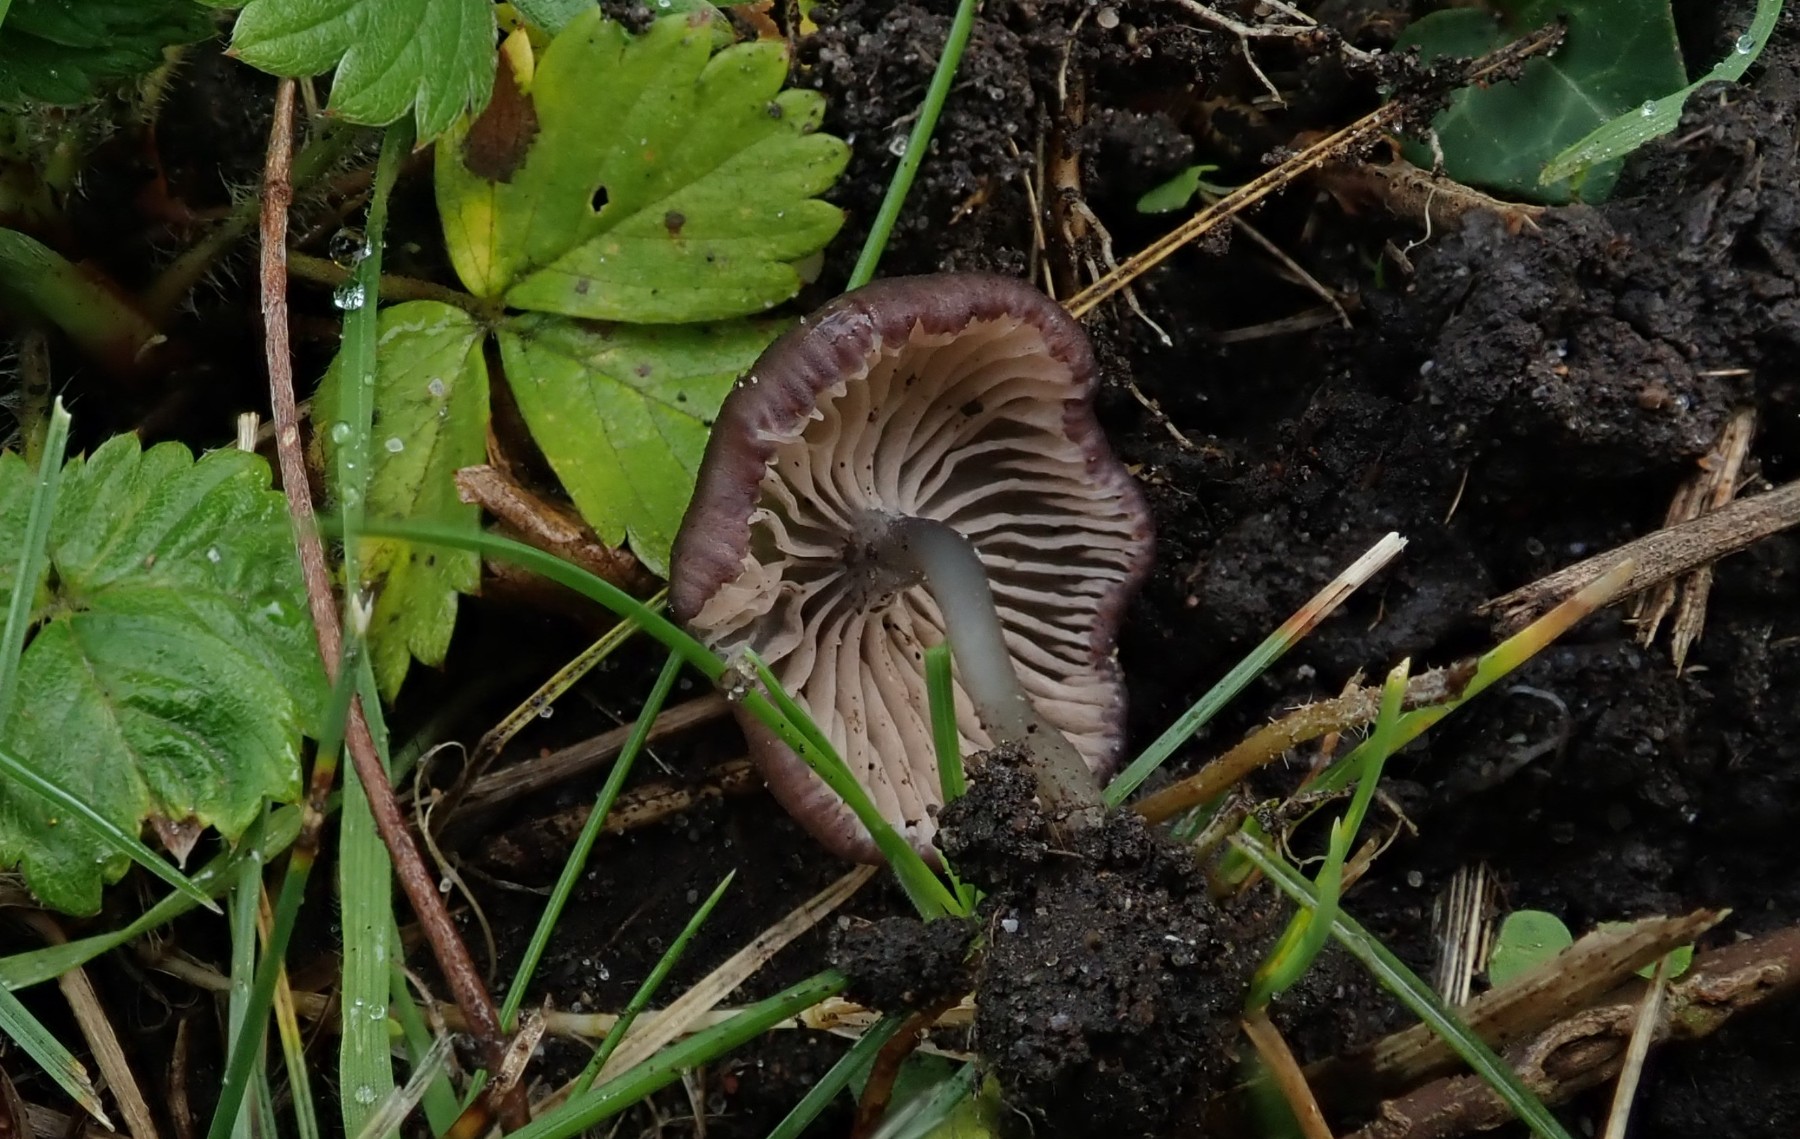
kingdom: Fungi
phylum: Basidiomycota
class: Agaricomycetes
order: Agaricales
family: Entolomataceae
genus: Entoloma
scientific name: Entoloma
